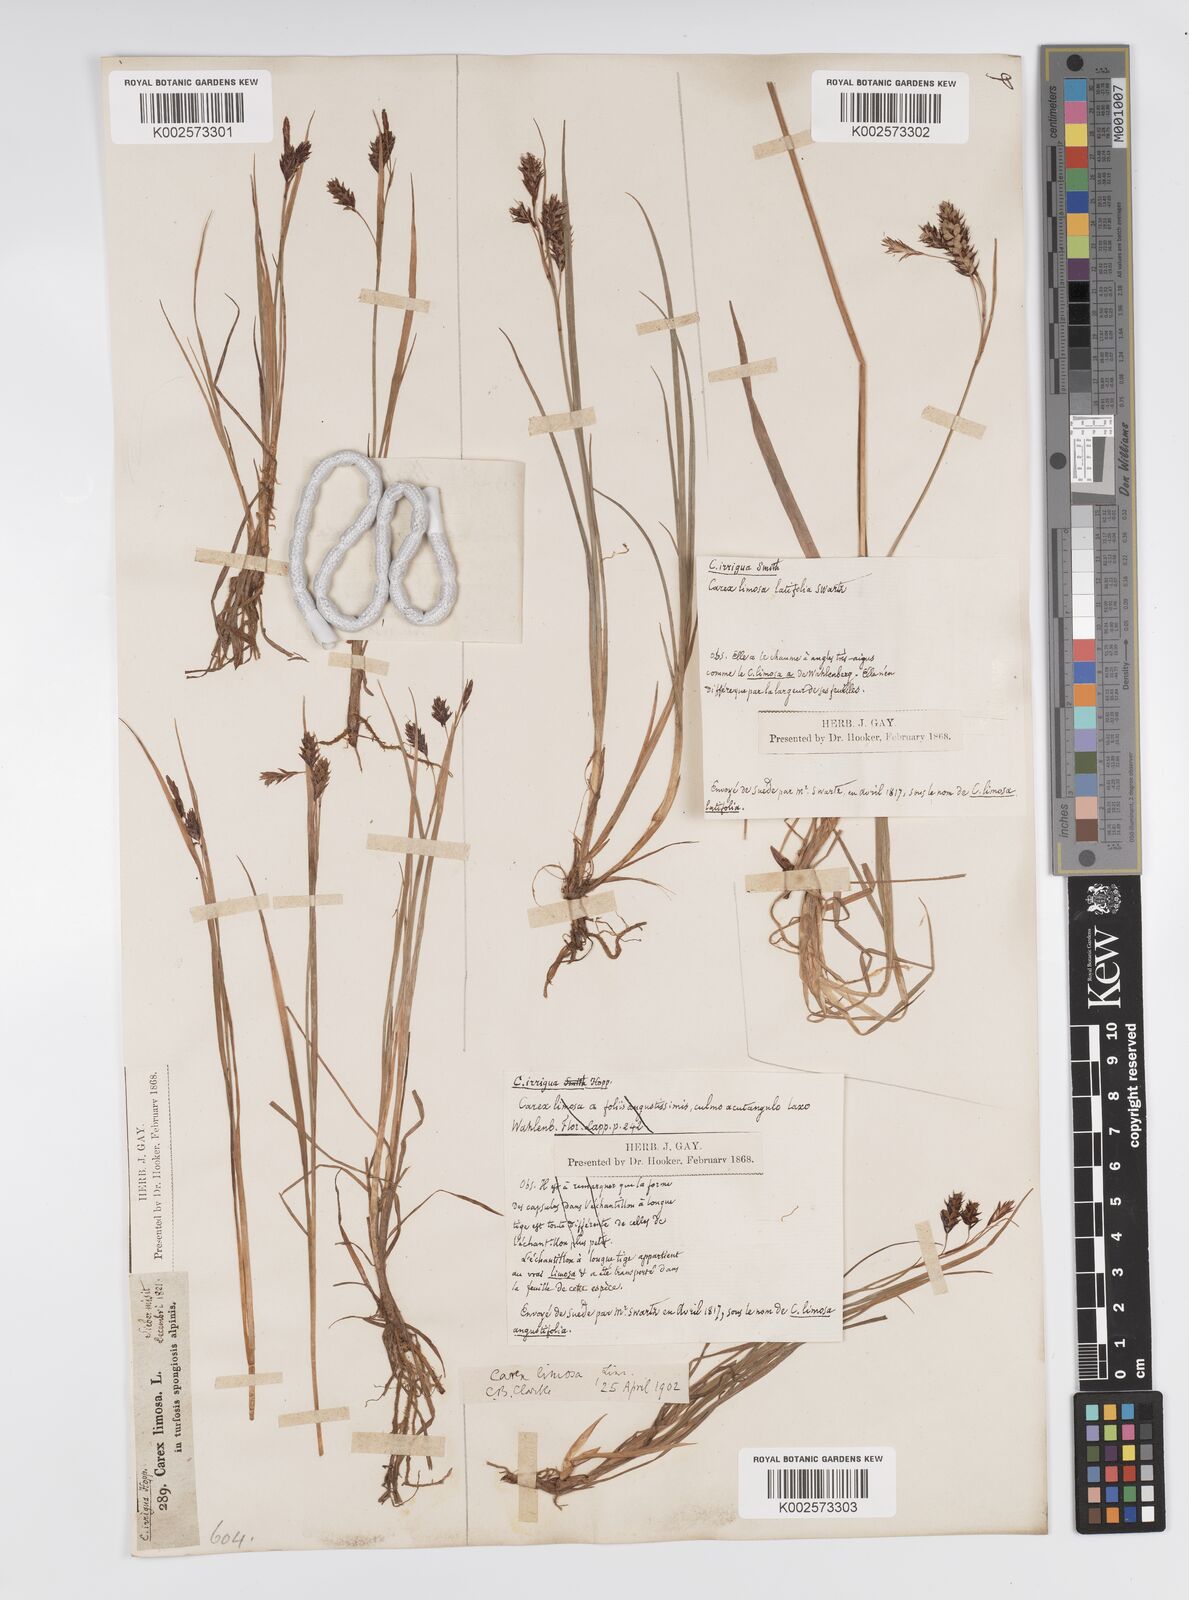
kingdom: Plantae
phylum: Tracheophyta
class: Liliopsida
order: Poales
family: Cyperaceae
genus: Carex
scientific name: Carex magellanica
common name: Bog sedge
